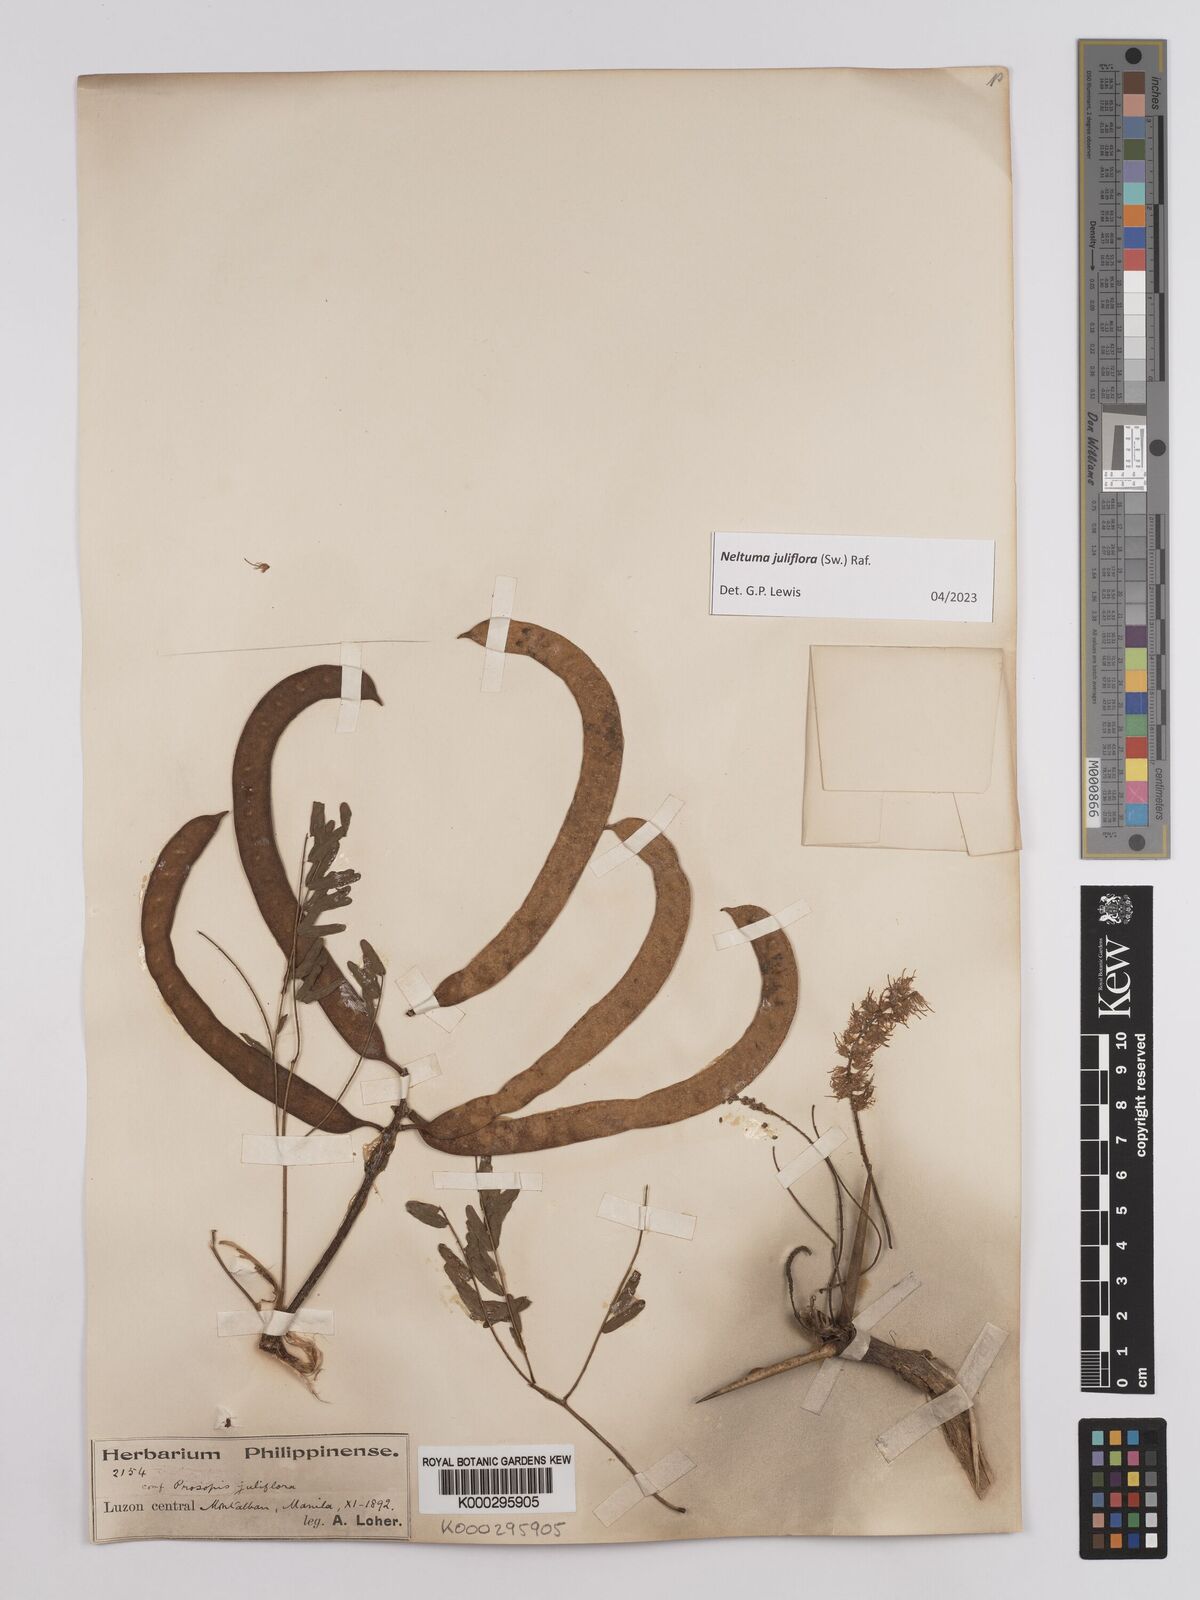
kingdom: Plantae
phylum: Tracheophyta
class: Magnoliopsida
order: Fabales
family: Fabaceae
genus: Prosopis
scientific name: Prosopis juliflora
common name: Mesquite
